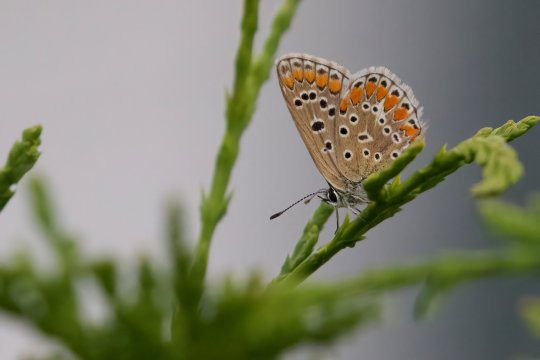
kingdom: Animalia
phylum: Arthropoda
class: Insecta
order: Lepidoptera
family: Lycaenidae
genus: Polyommatus
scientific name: Polyommatus icarus
